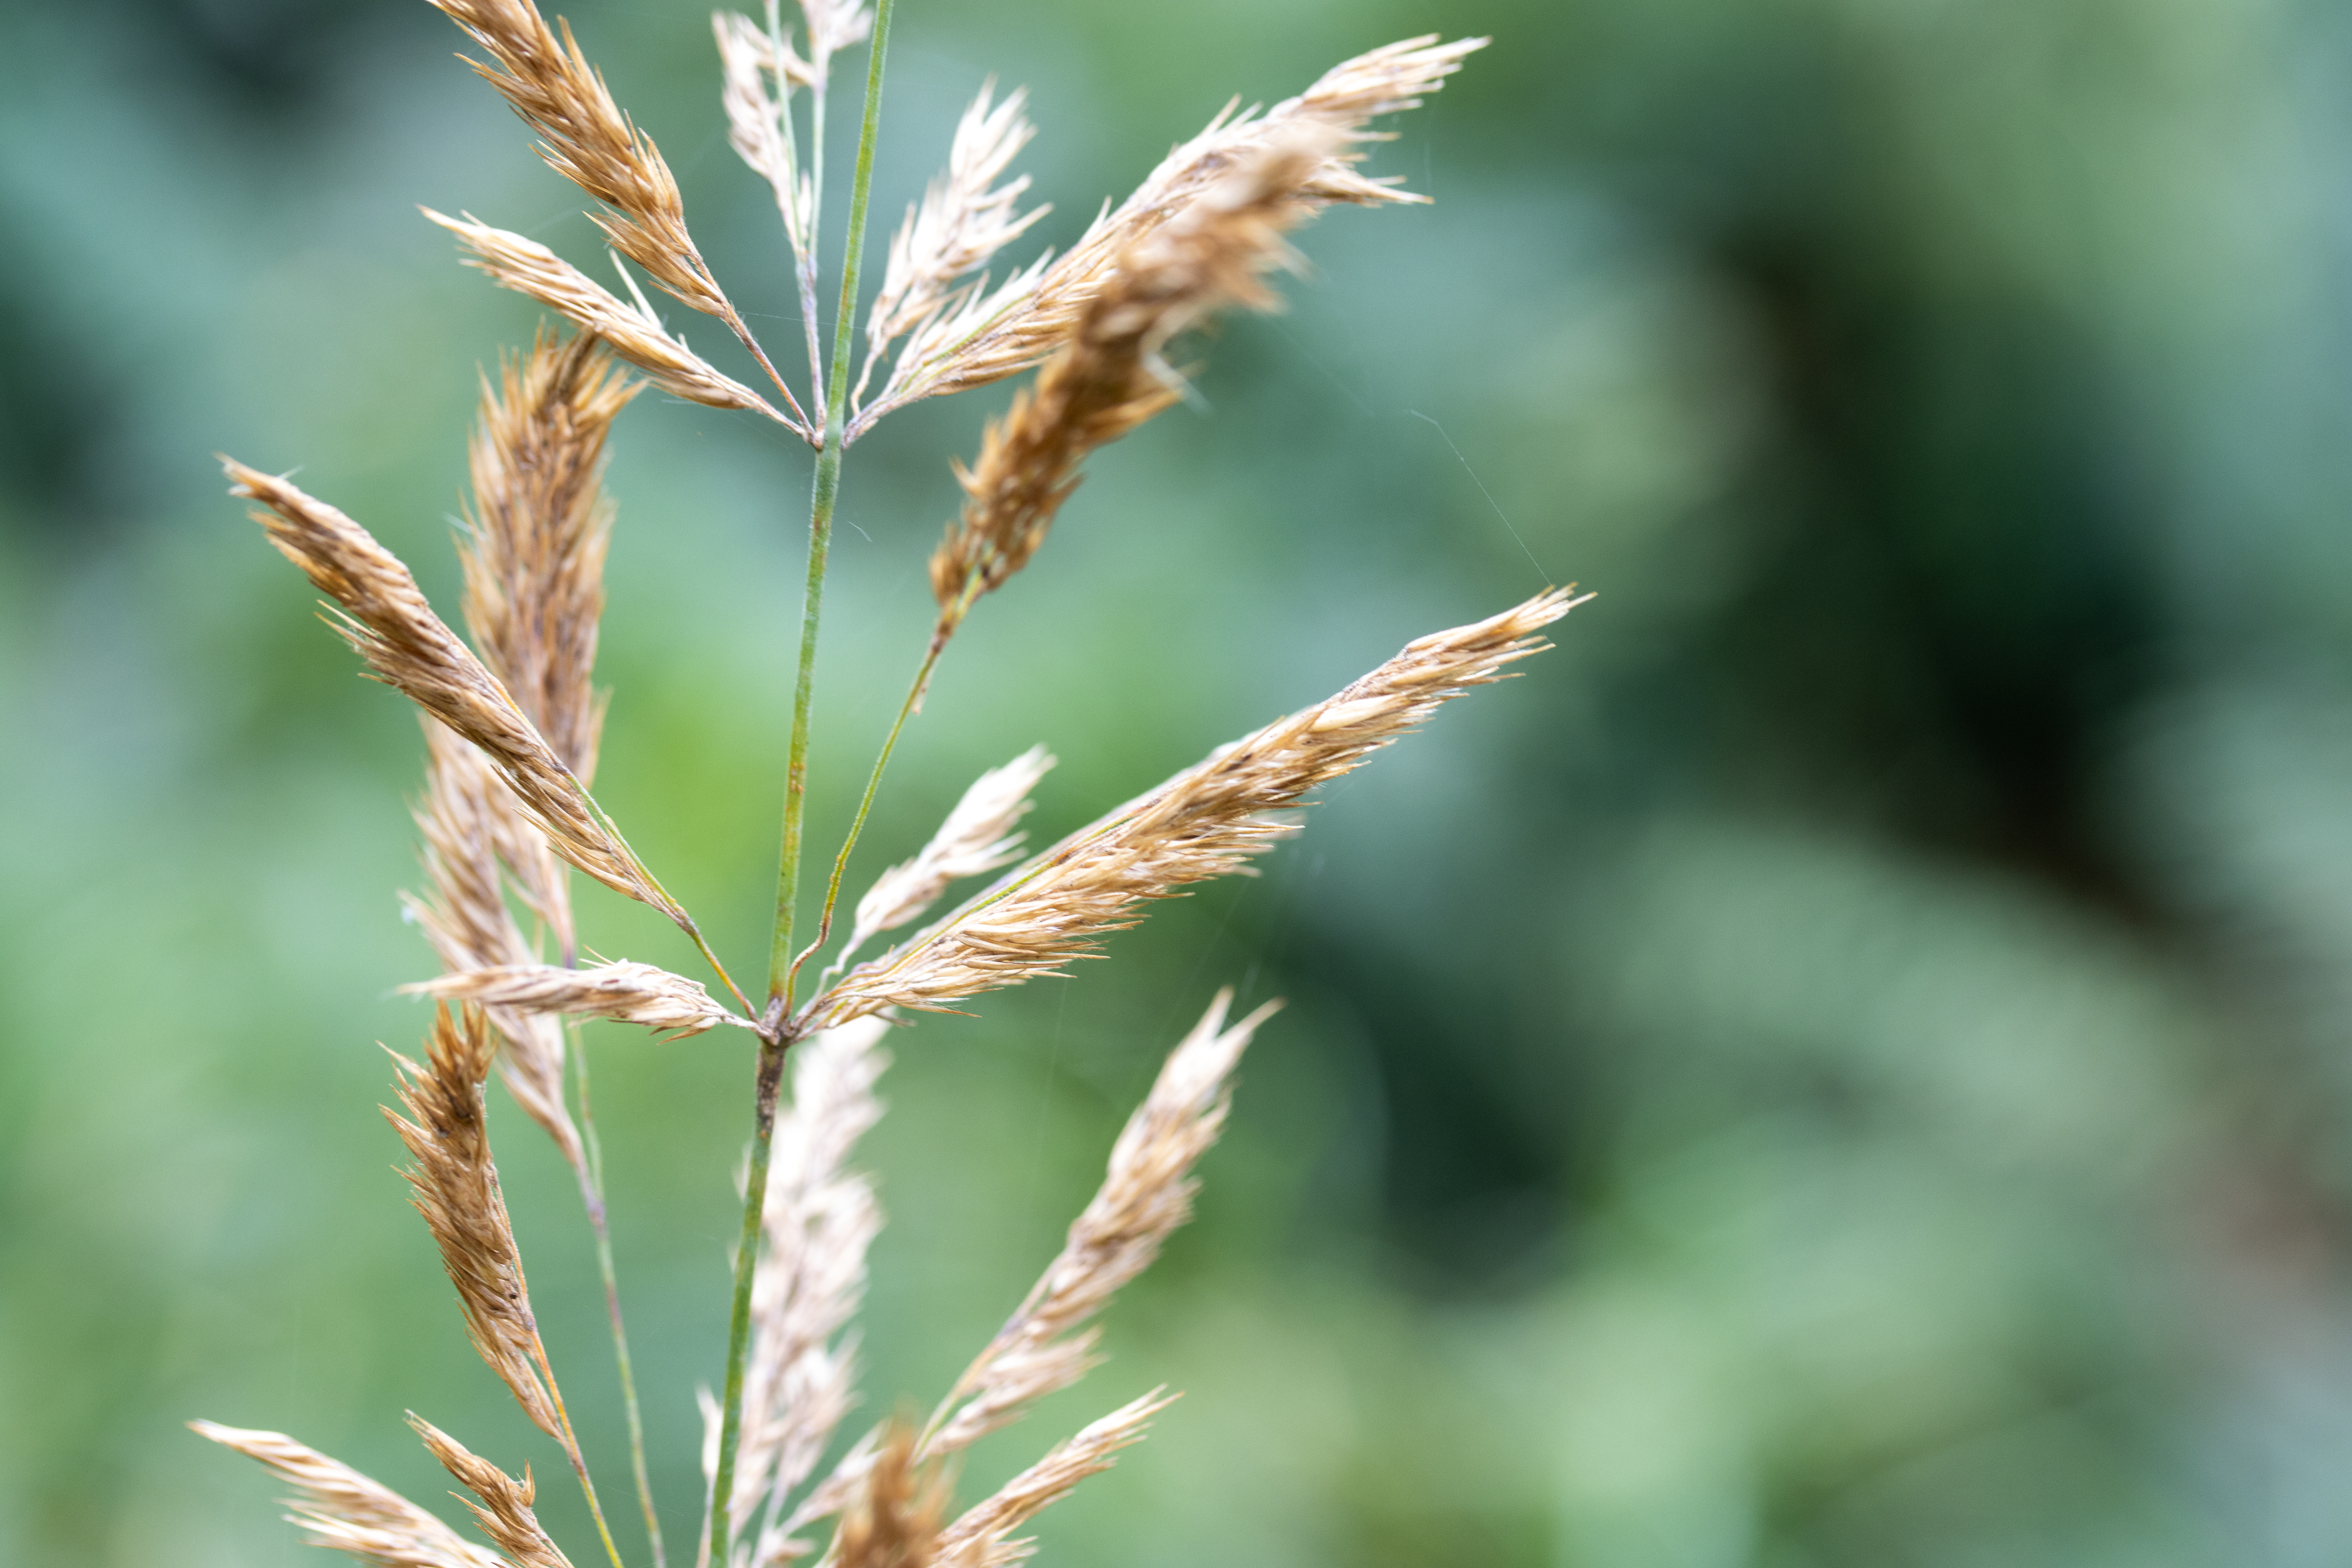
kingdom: Plantae
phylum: Tracheophyta
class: Liliopsida
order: Poales
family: Poaceae
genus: Calamagrostis
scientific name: Calamagrostis
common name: Rørhveneslægten
